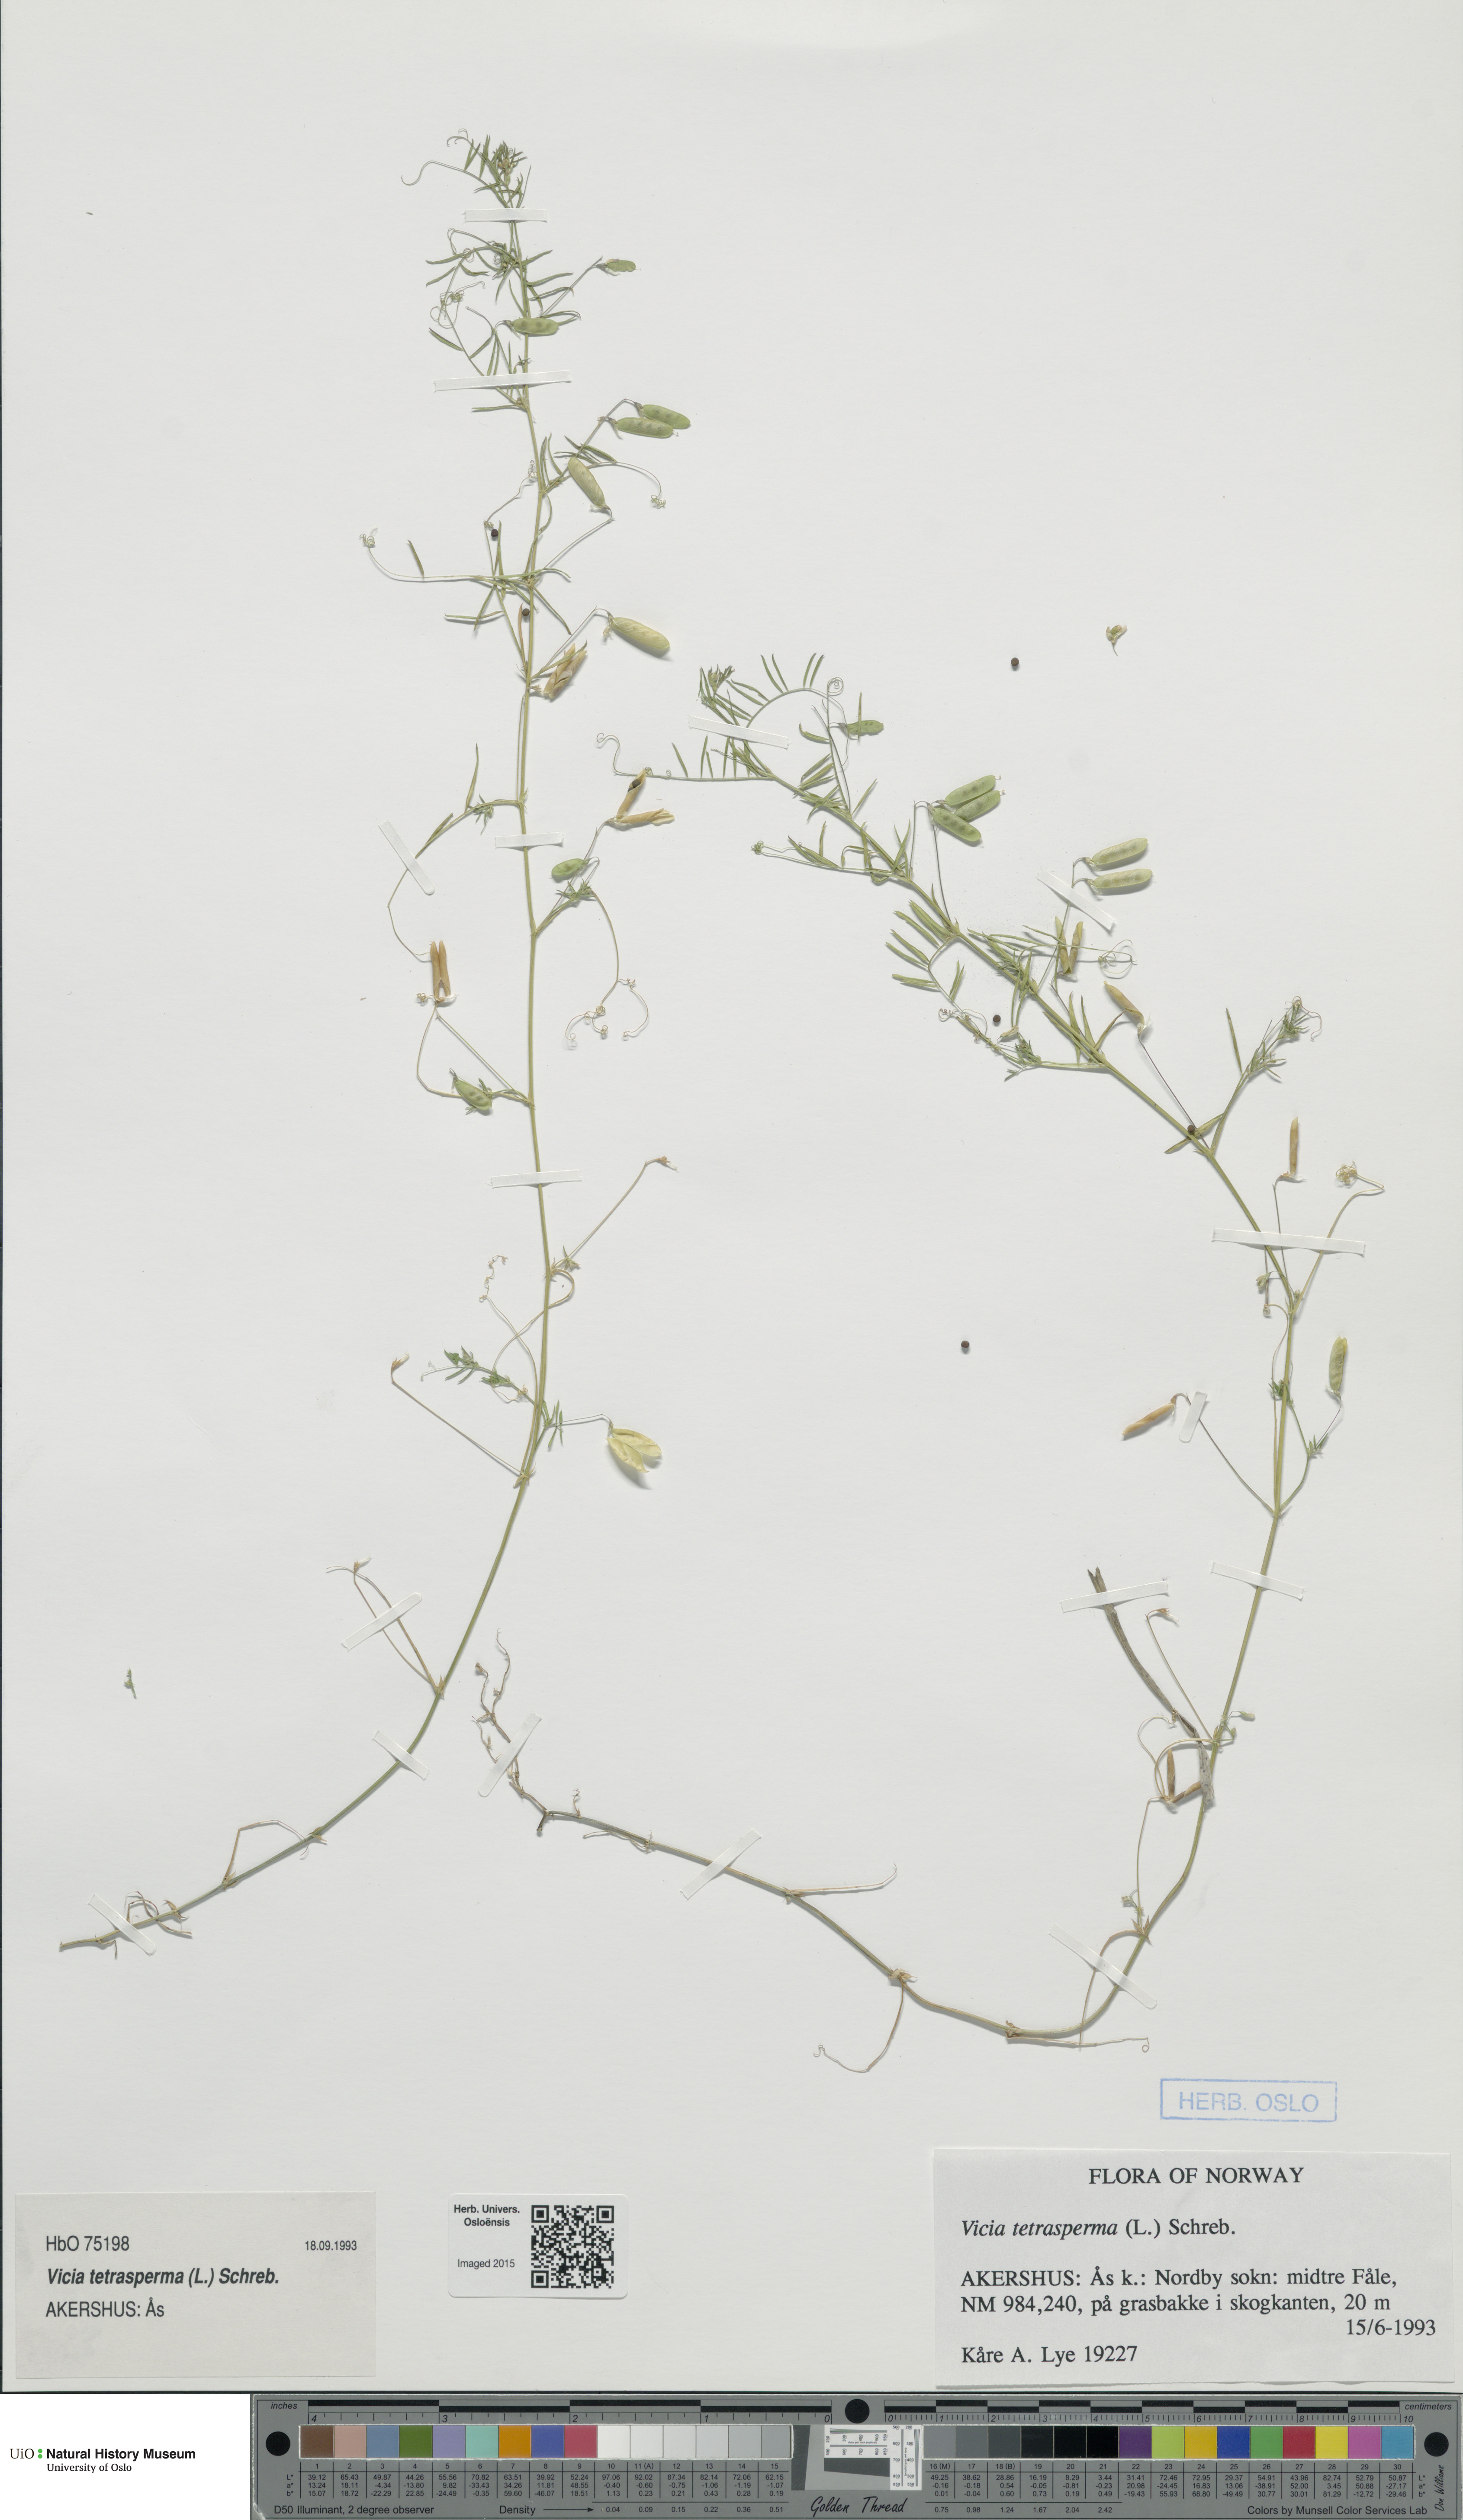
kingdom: Plantae
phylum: Tracheophyta
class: Magnoliopsida
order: Fabales
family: Fabaceae
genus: Vicia
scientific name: Vicia tetrasperma
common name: Smooth tare
